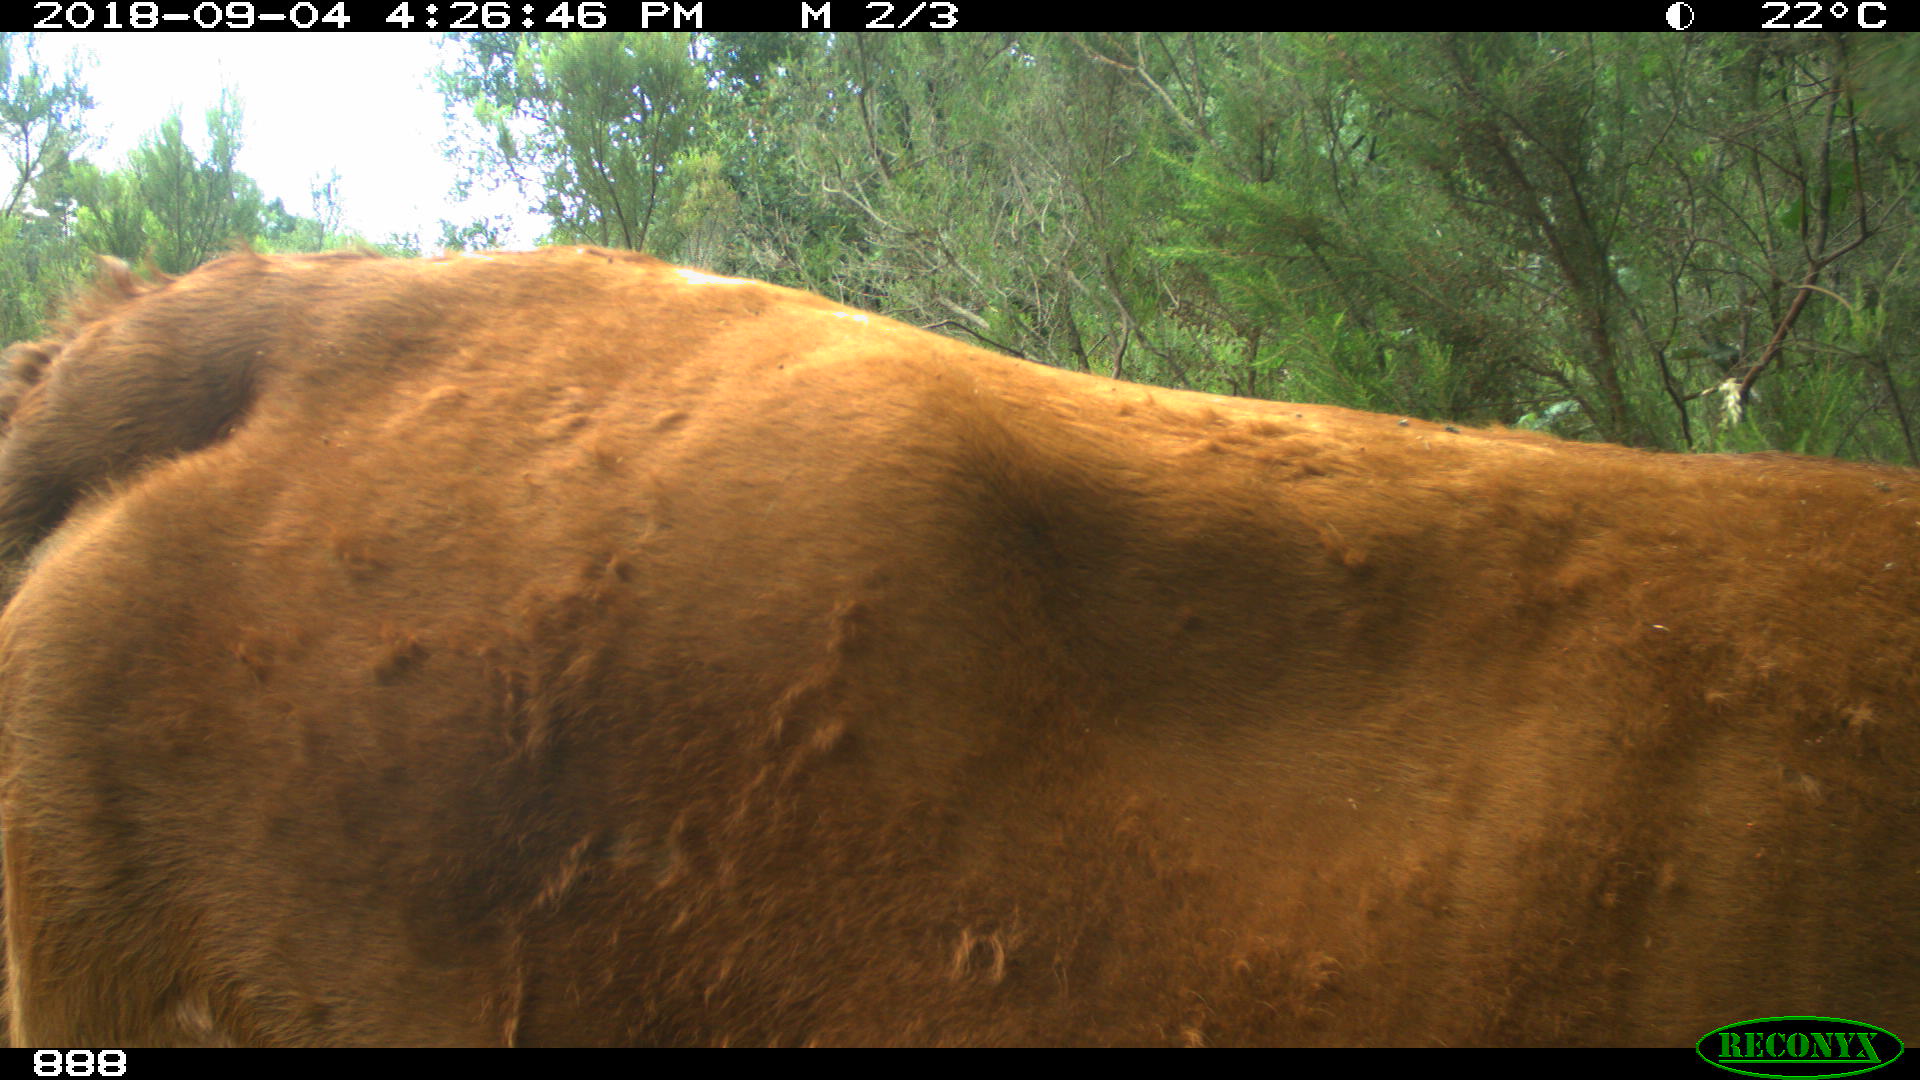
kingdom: Animalia
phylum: Chordata
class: Mammalia
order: Artiodactyla
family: Bovidae
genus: Bos
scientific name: Bos taurus
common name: Domesticated cattle
